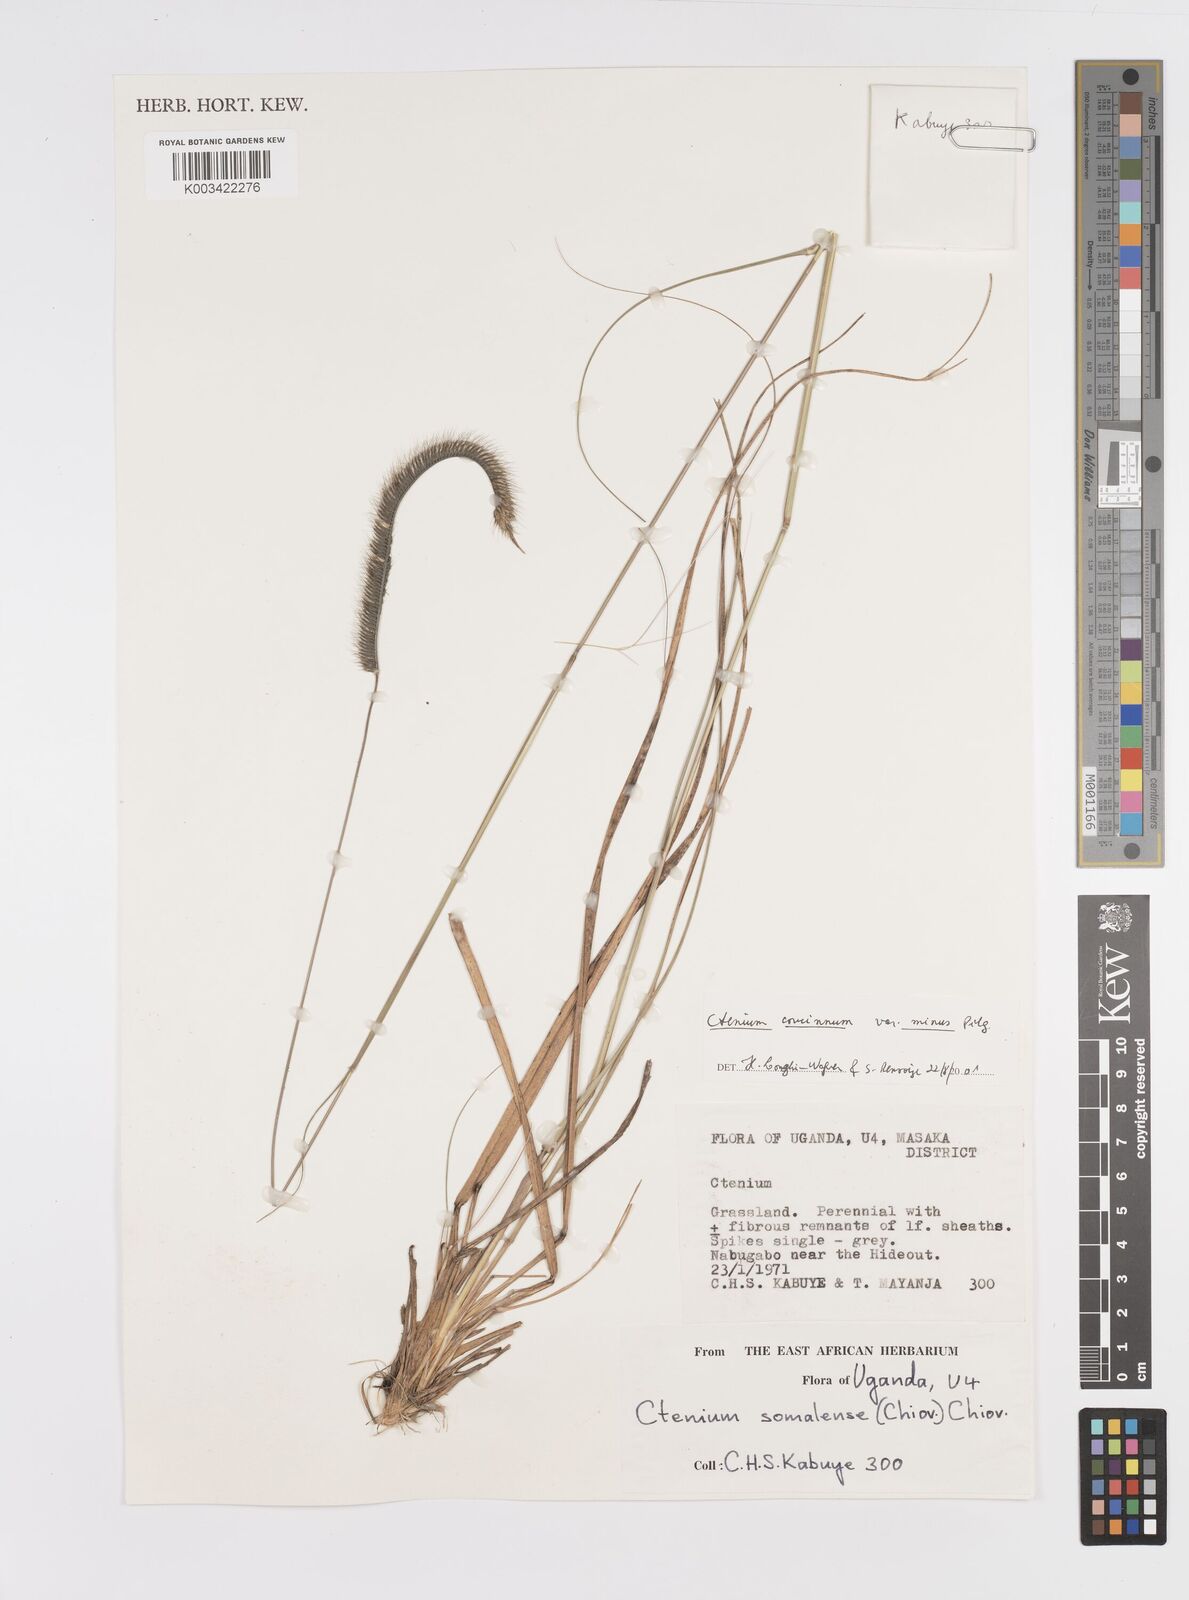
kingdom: Plantae
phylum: Tracheophyta
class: Liliopsida
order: Poales
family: Poaceae
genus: Ctenium
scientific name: Ctenium concinnum
